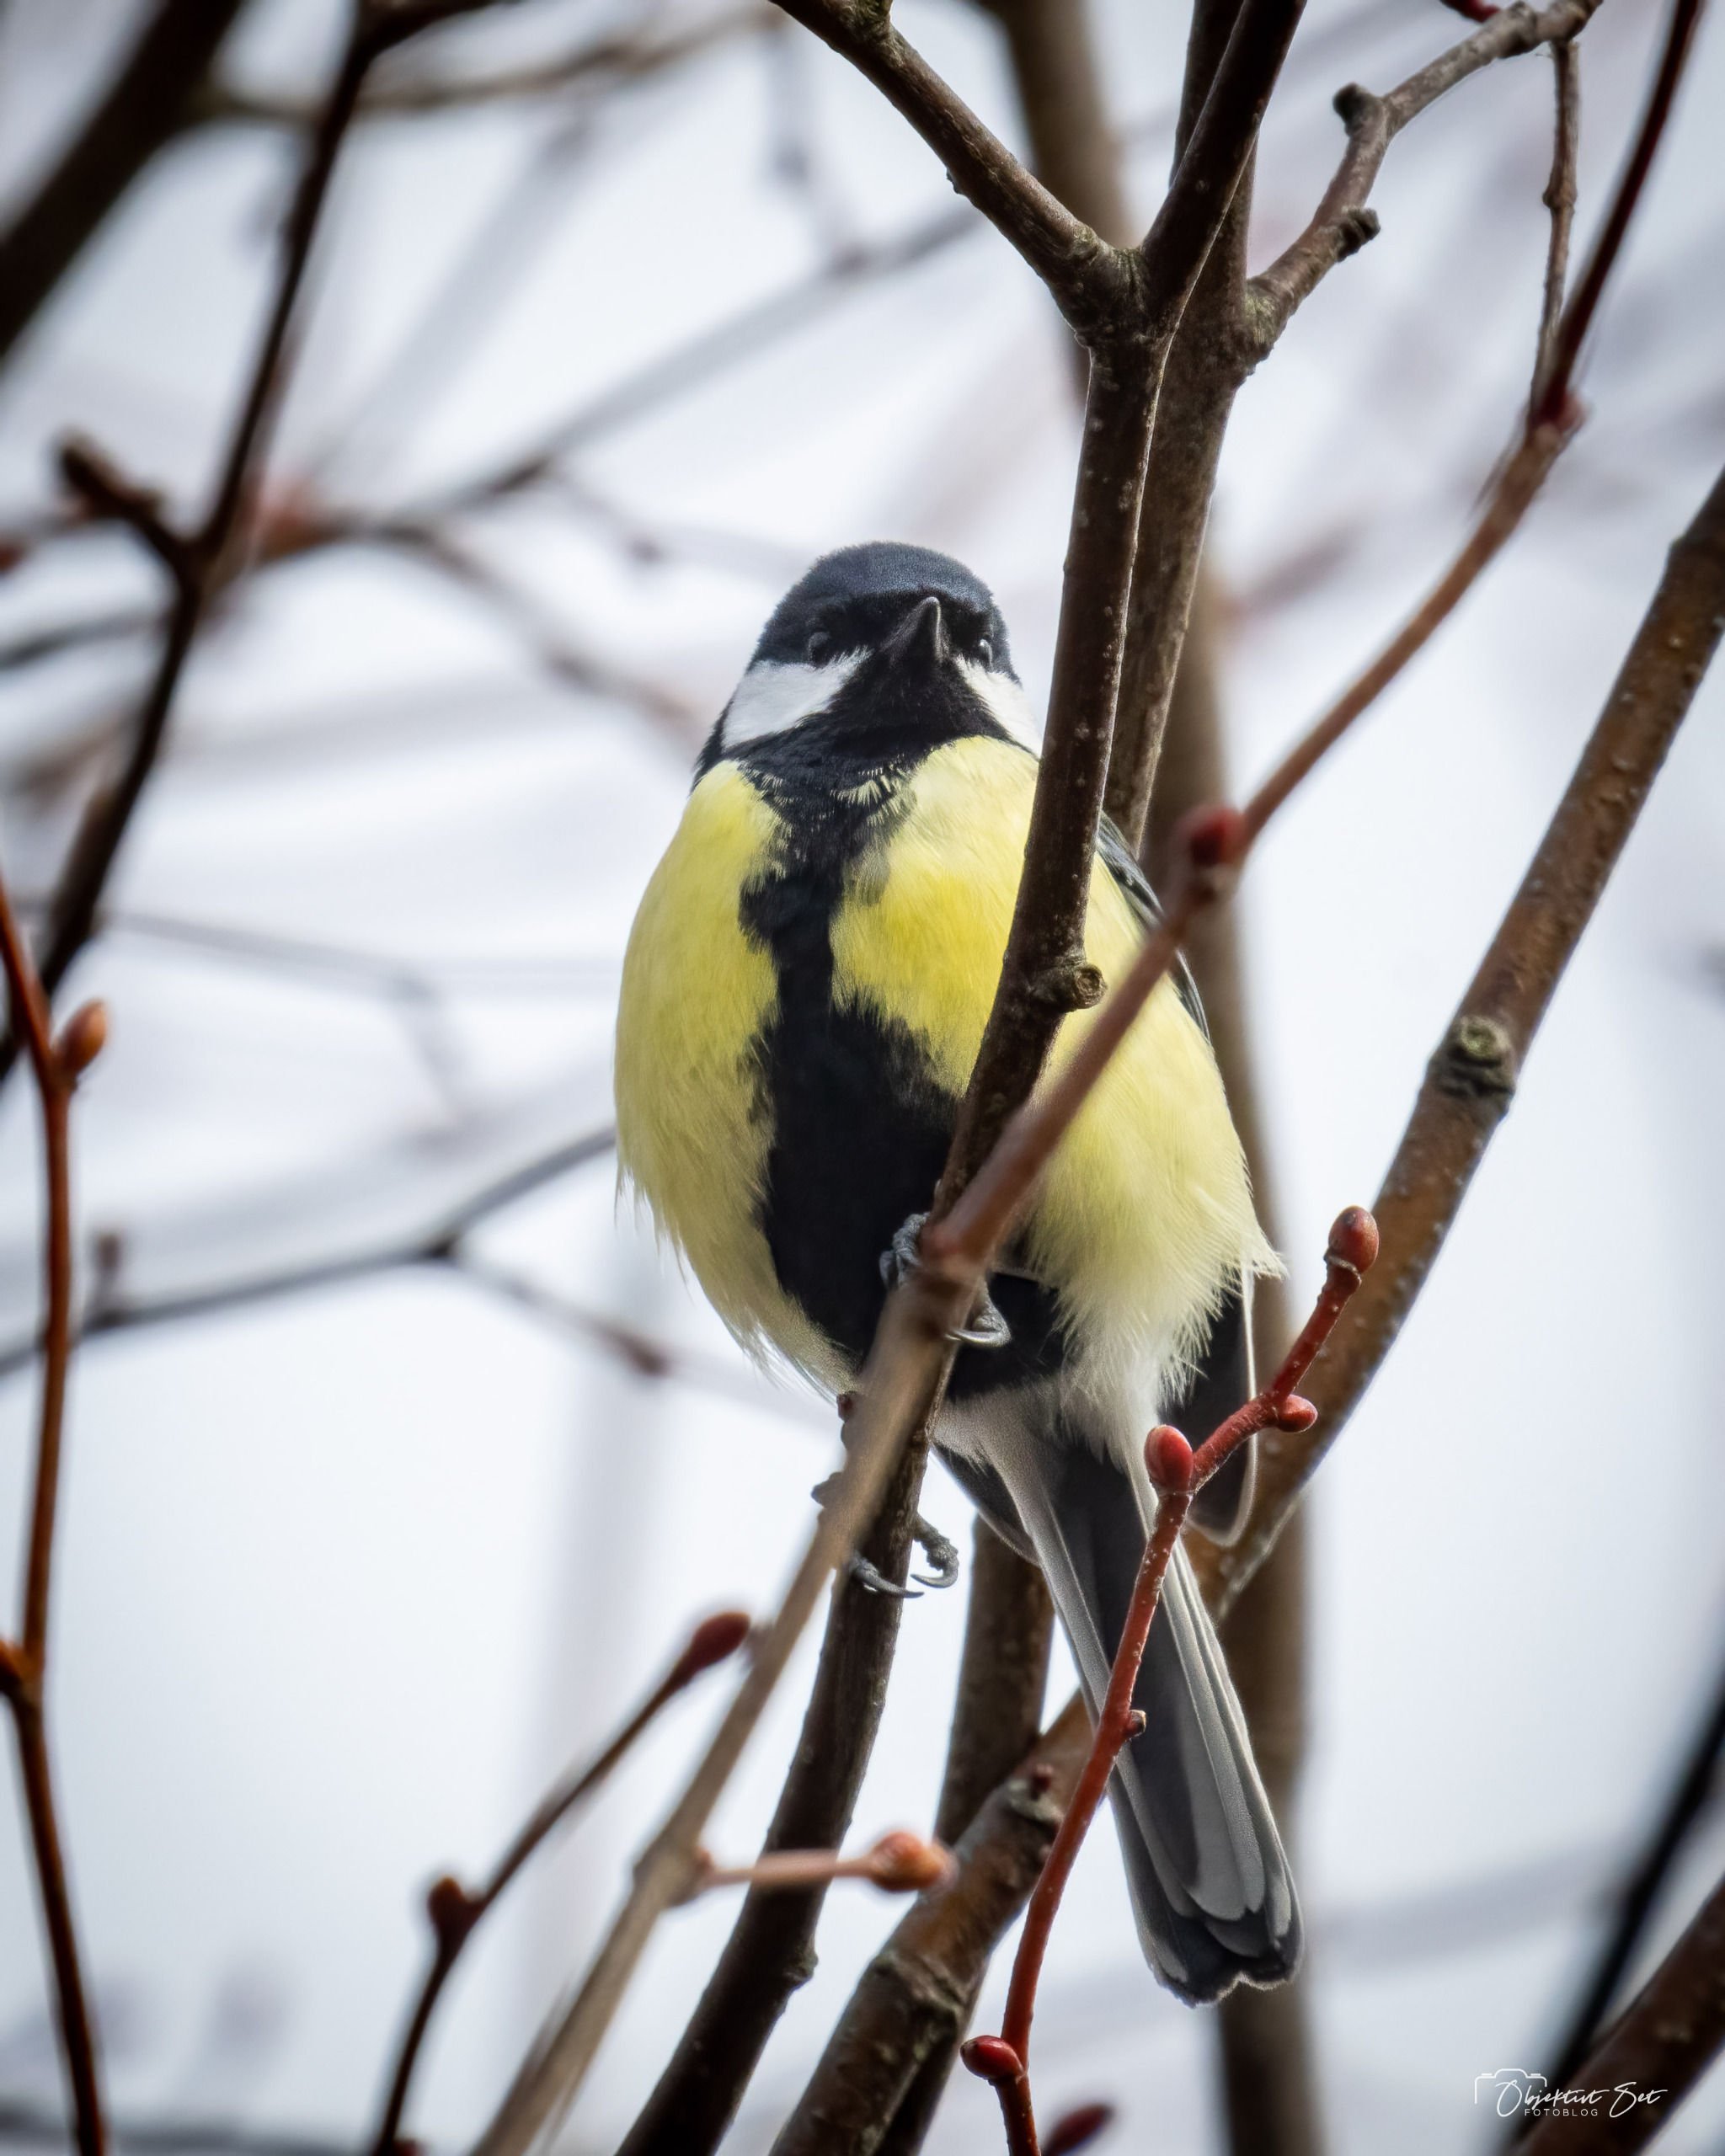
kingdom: Animalia
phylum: Chordata
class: Aves
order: Passeriformes
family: Paridae
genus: Parus
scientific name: Parus major
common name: Musvit
